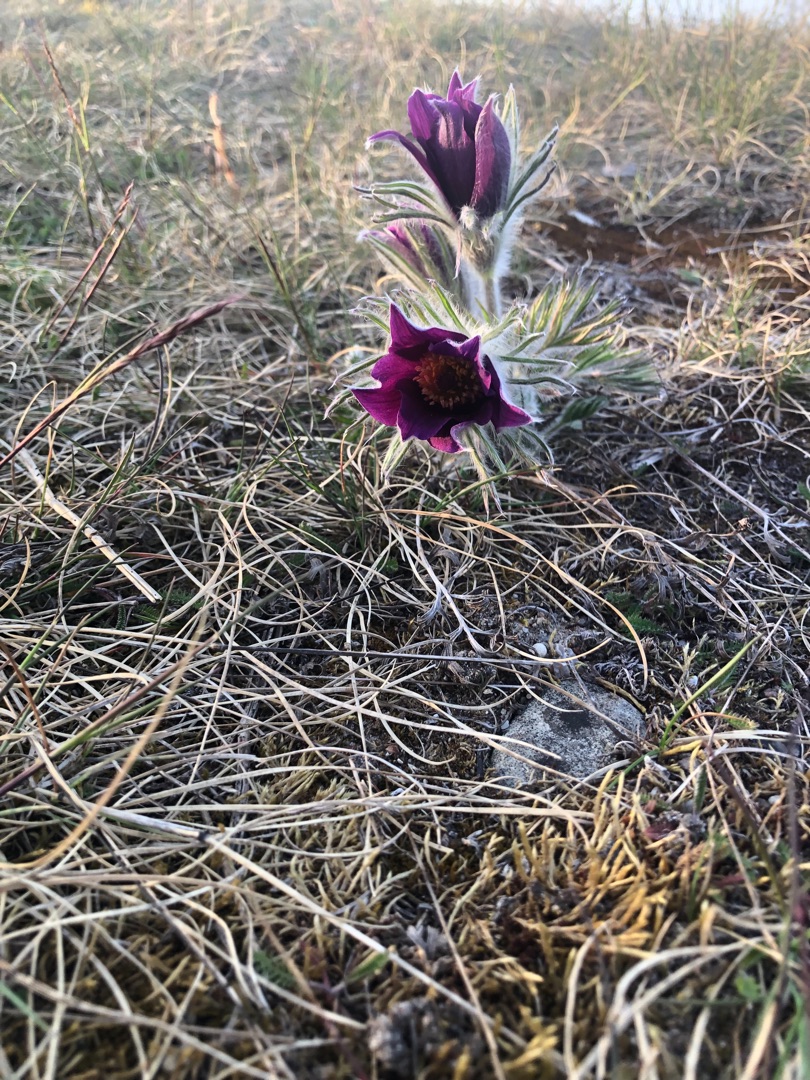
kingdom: Plantae
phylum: Tracheophyta
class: Magnoliopsida
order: Ranunculales
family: Ranunculaceae
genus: Pulsatilla
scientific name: Pulsatilla vulgaris
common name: Opret kobjælde
